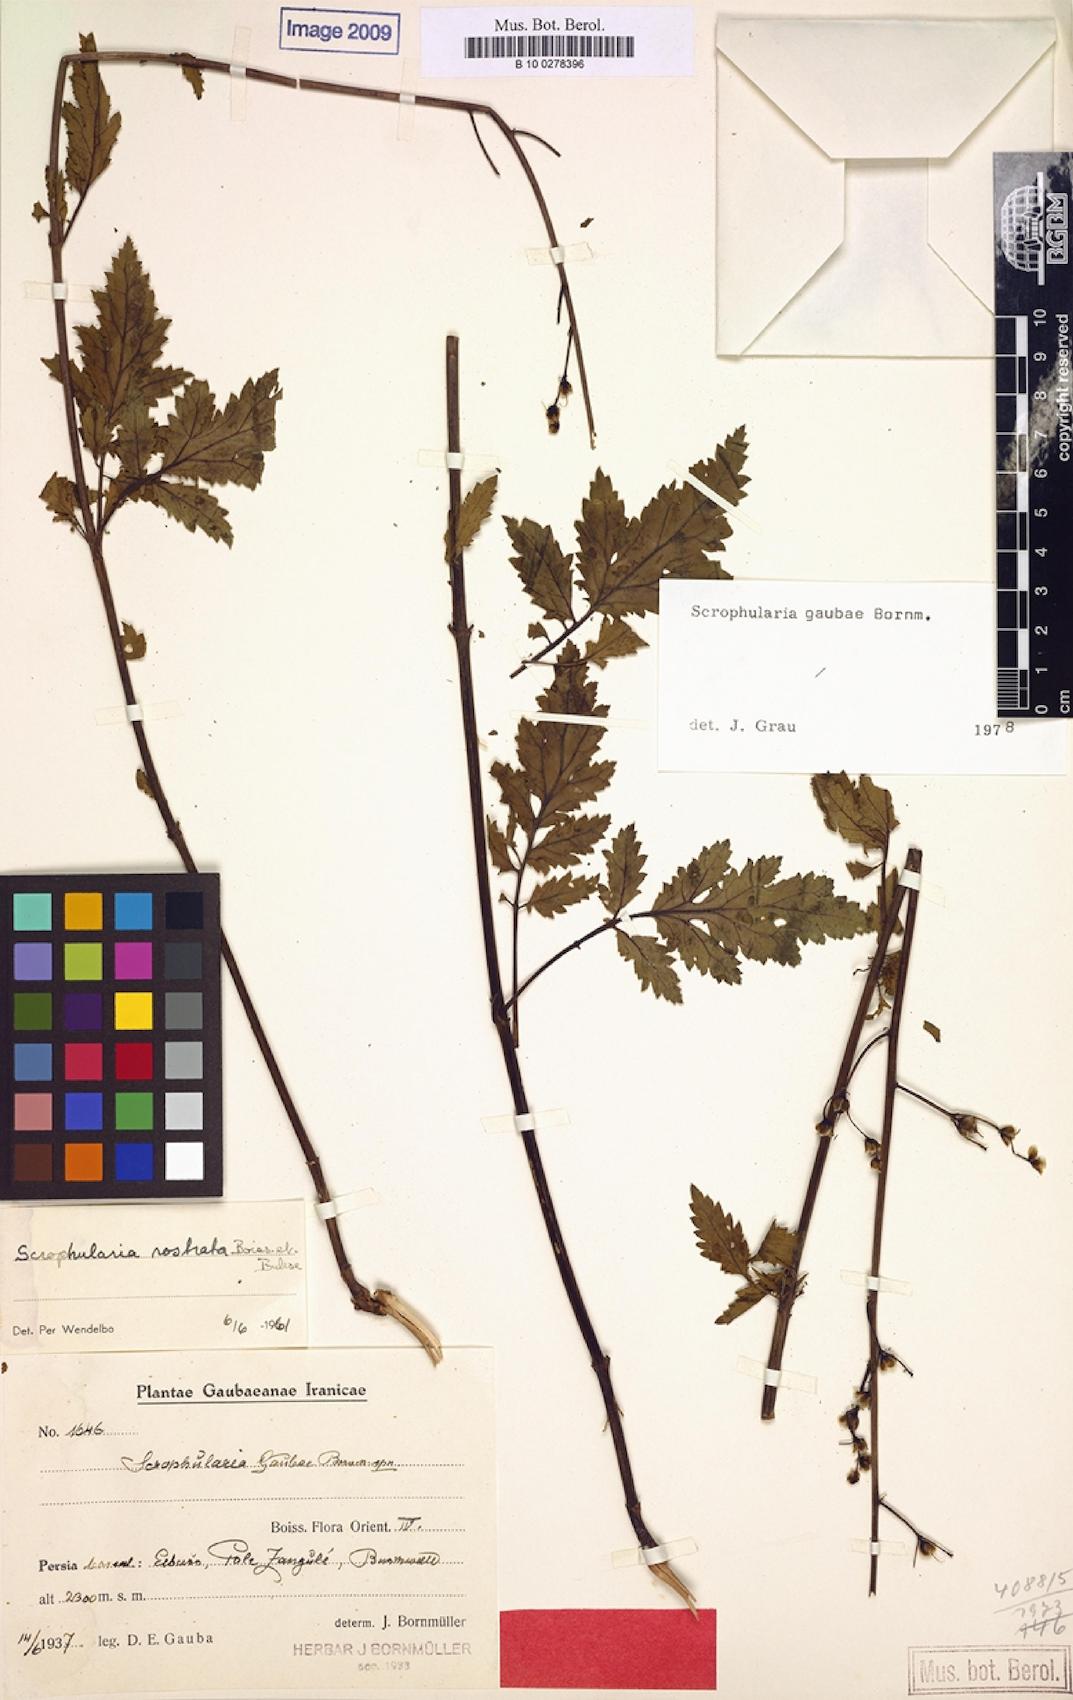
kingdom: Plantae
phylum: Tracheophyta
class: Magnoliopsida
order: Lamiales
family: Scrophulariaceae
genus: Scrophularia
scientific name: Scrophularia rostrata
